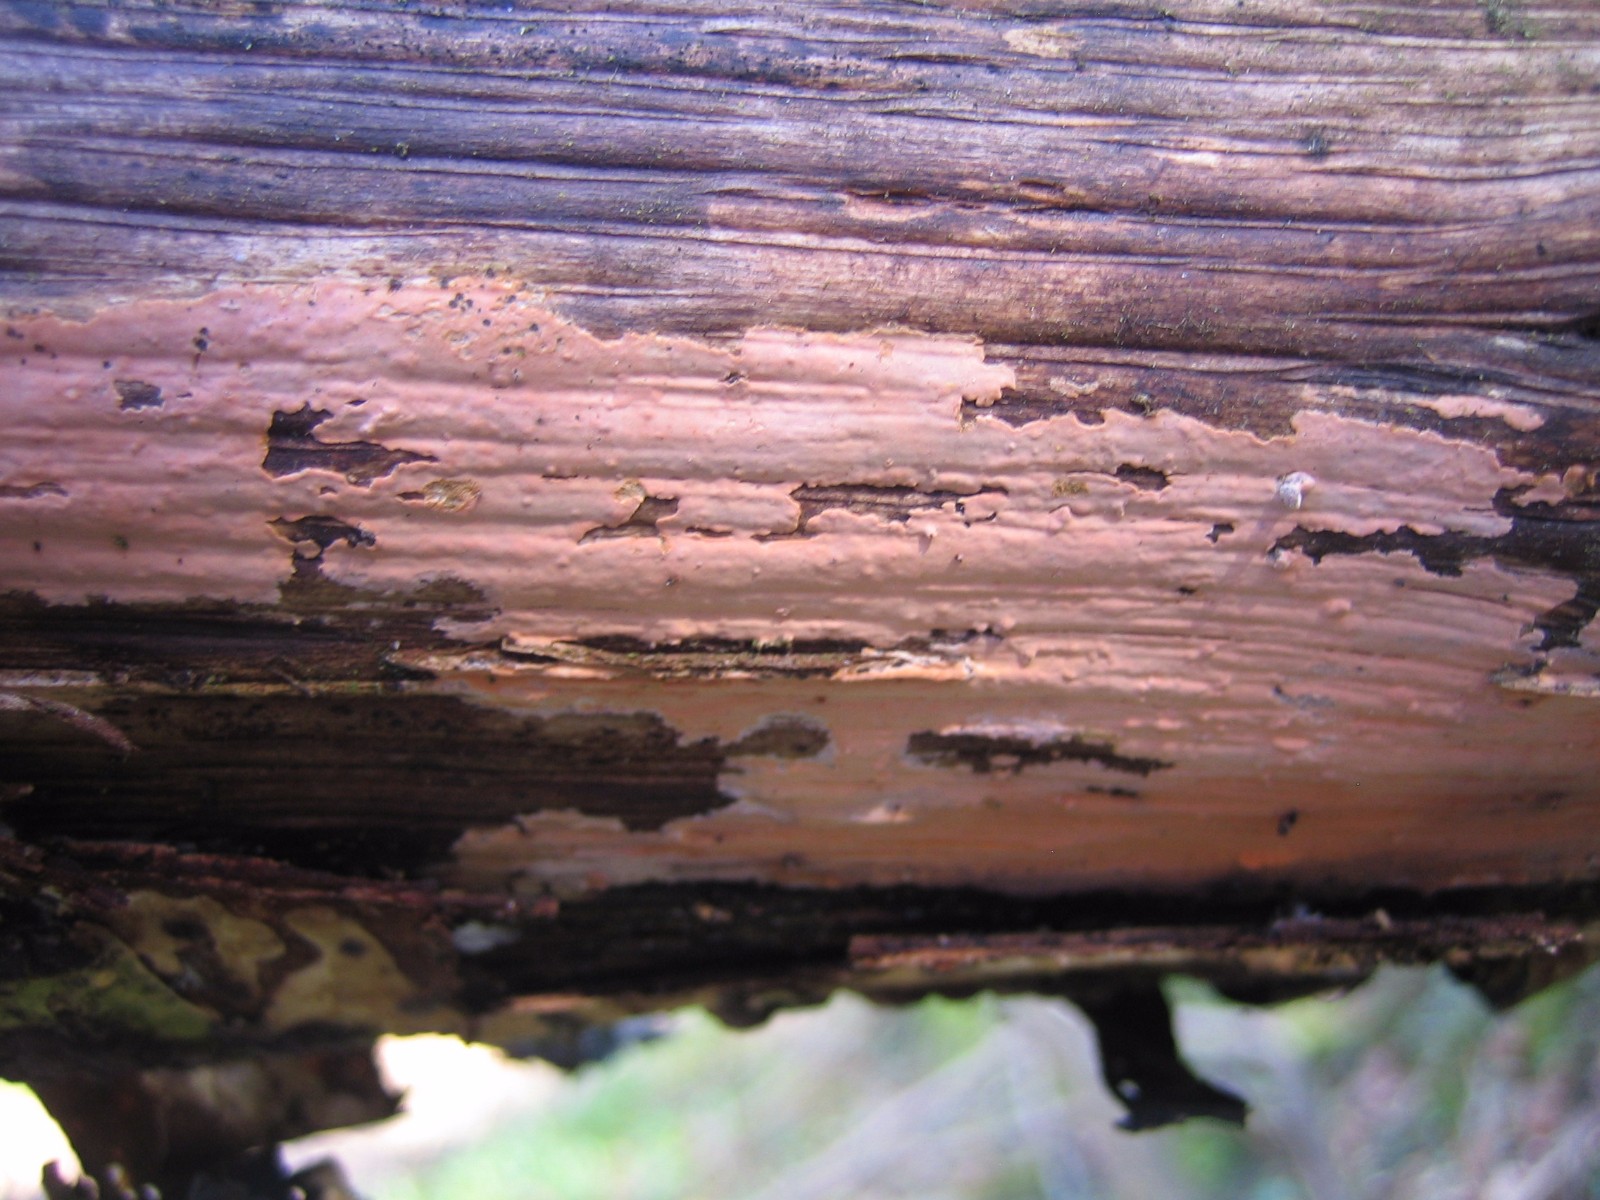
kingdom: Fungi
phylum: Basidiomycota
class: Agaricomycetes
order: Russulales
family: Peniophoraceae
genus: Peniophora
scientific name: Peniophora incarnata
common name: laksefarvet voksskind
